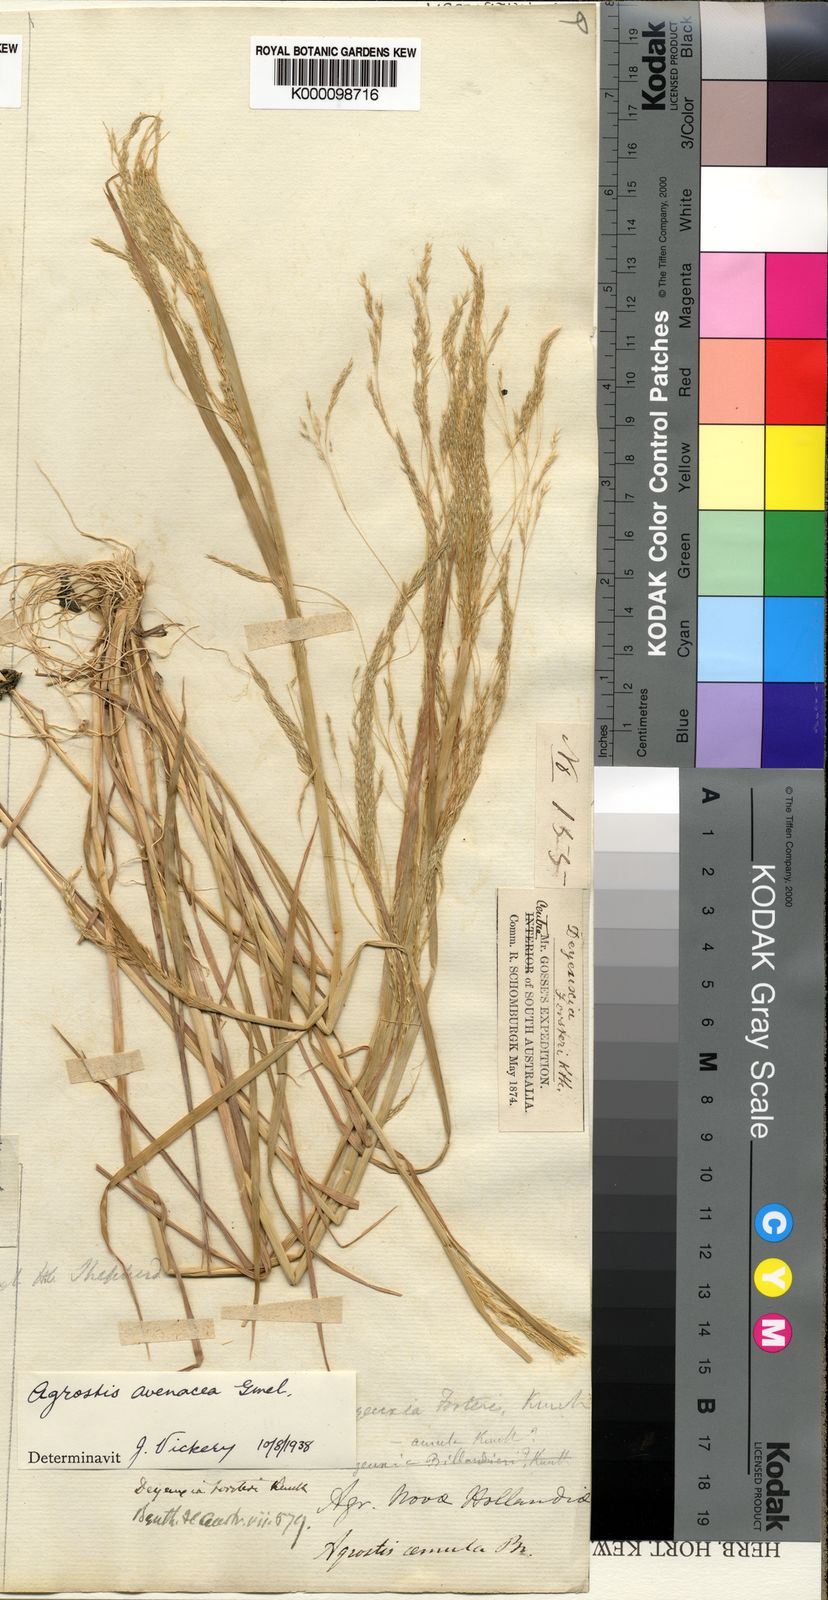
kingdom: Plantae
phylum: Tracheophyta
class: Liliopsida
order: Poales
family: Poaceae
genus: Lachnagrostis
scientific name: Lachnagrostis filiformis
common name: Bentgrass
